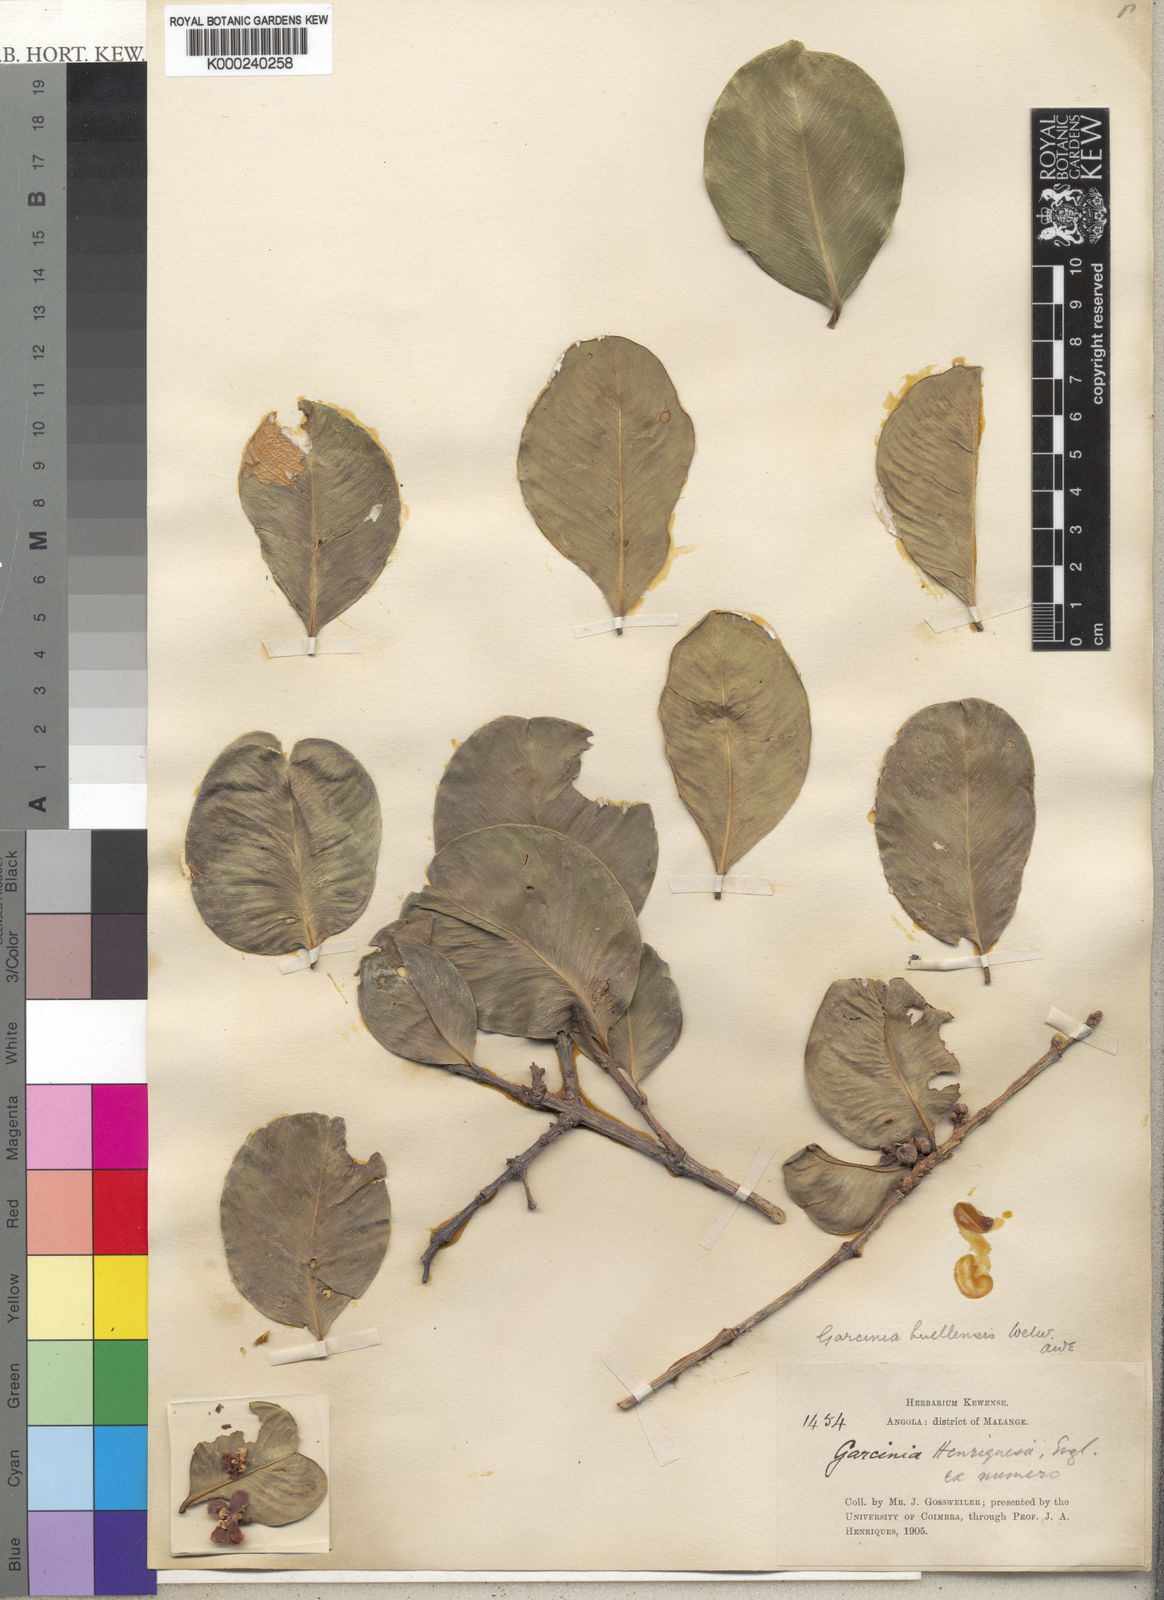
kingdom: Plantae
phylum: Tracheophyta
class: Magnoliopsida
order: Malpighiales
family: Clusiaceae
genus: Garcinia
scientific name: Garcinia huillensis
